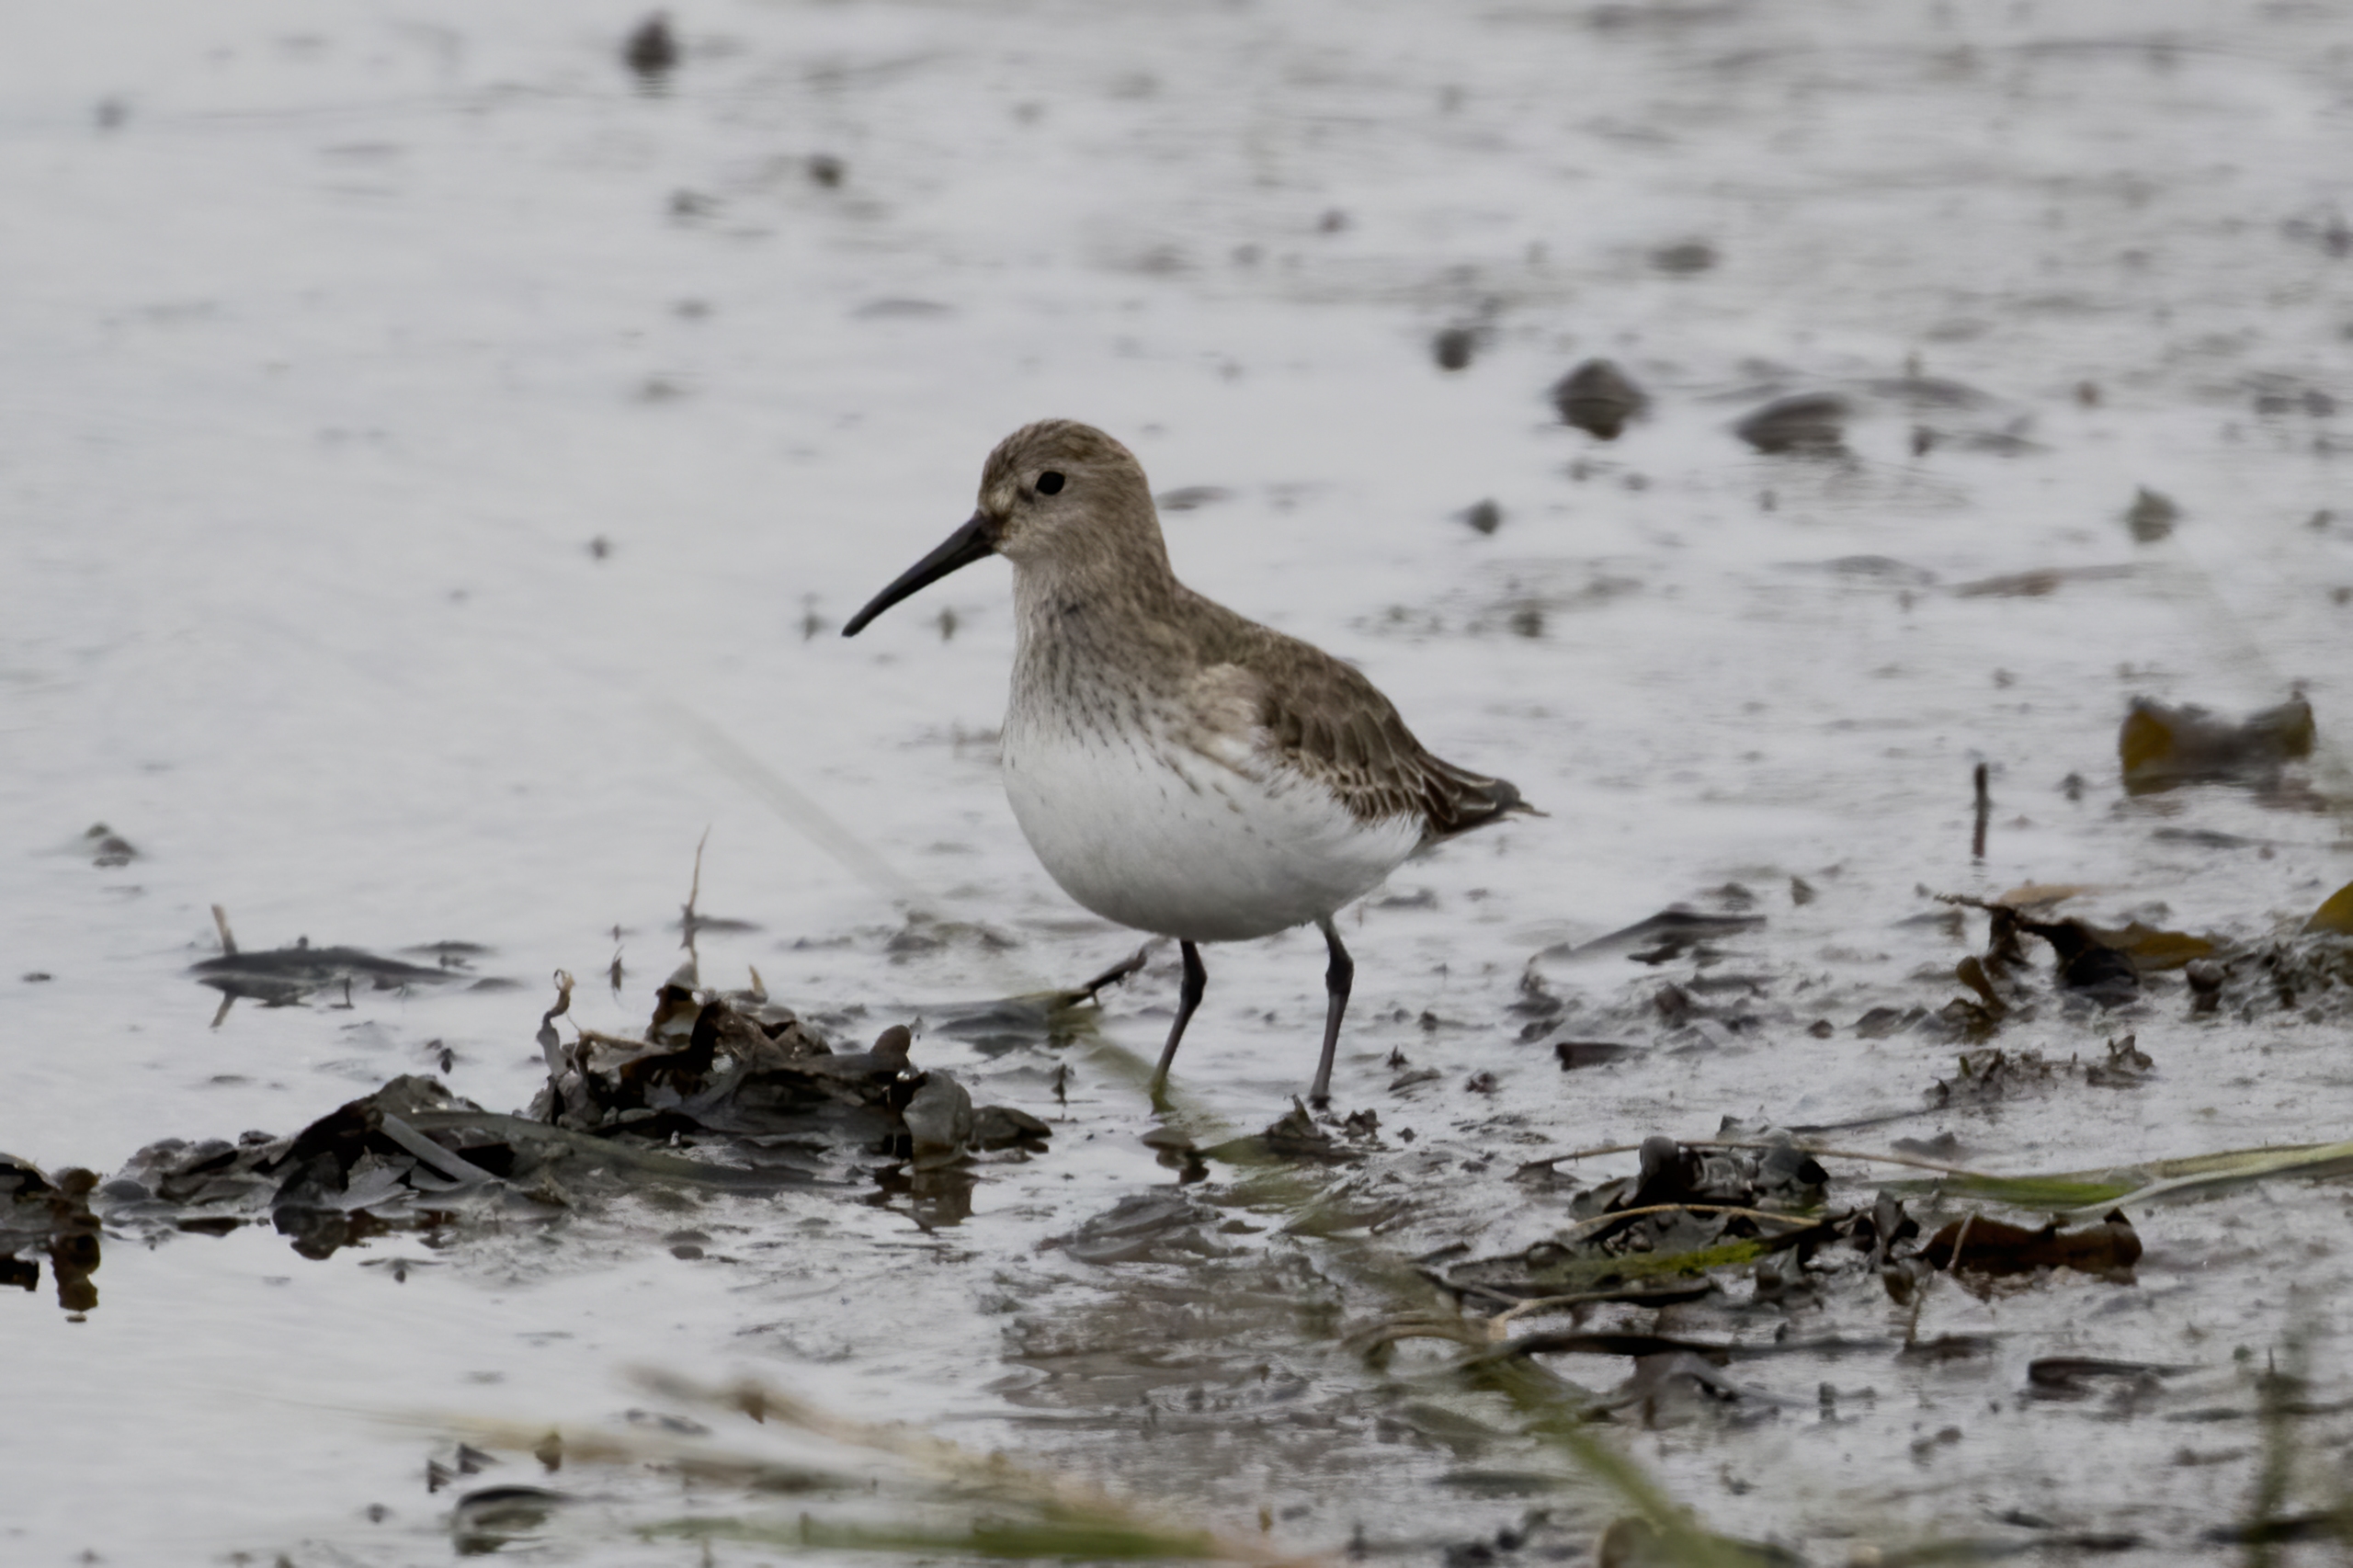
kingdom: Animalia
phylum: Chordata
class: Aves
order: Charadriiformes
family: Scolopacidae
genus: Calidris
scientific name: Calidris alpina
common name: Almindelig ryle
